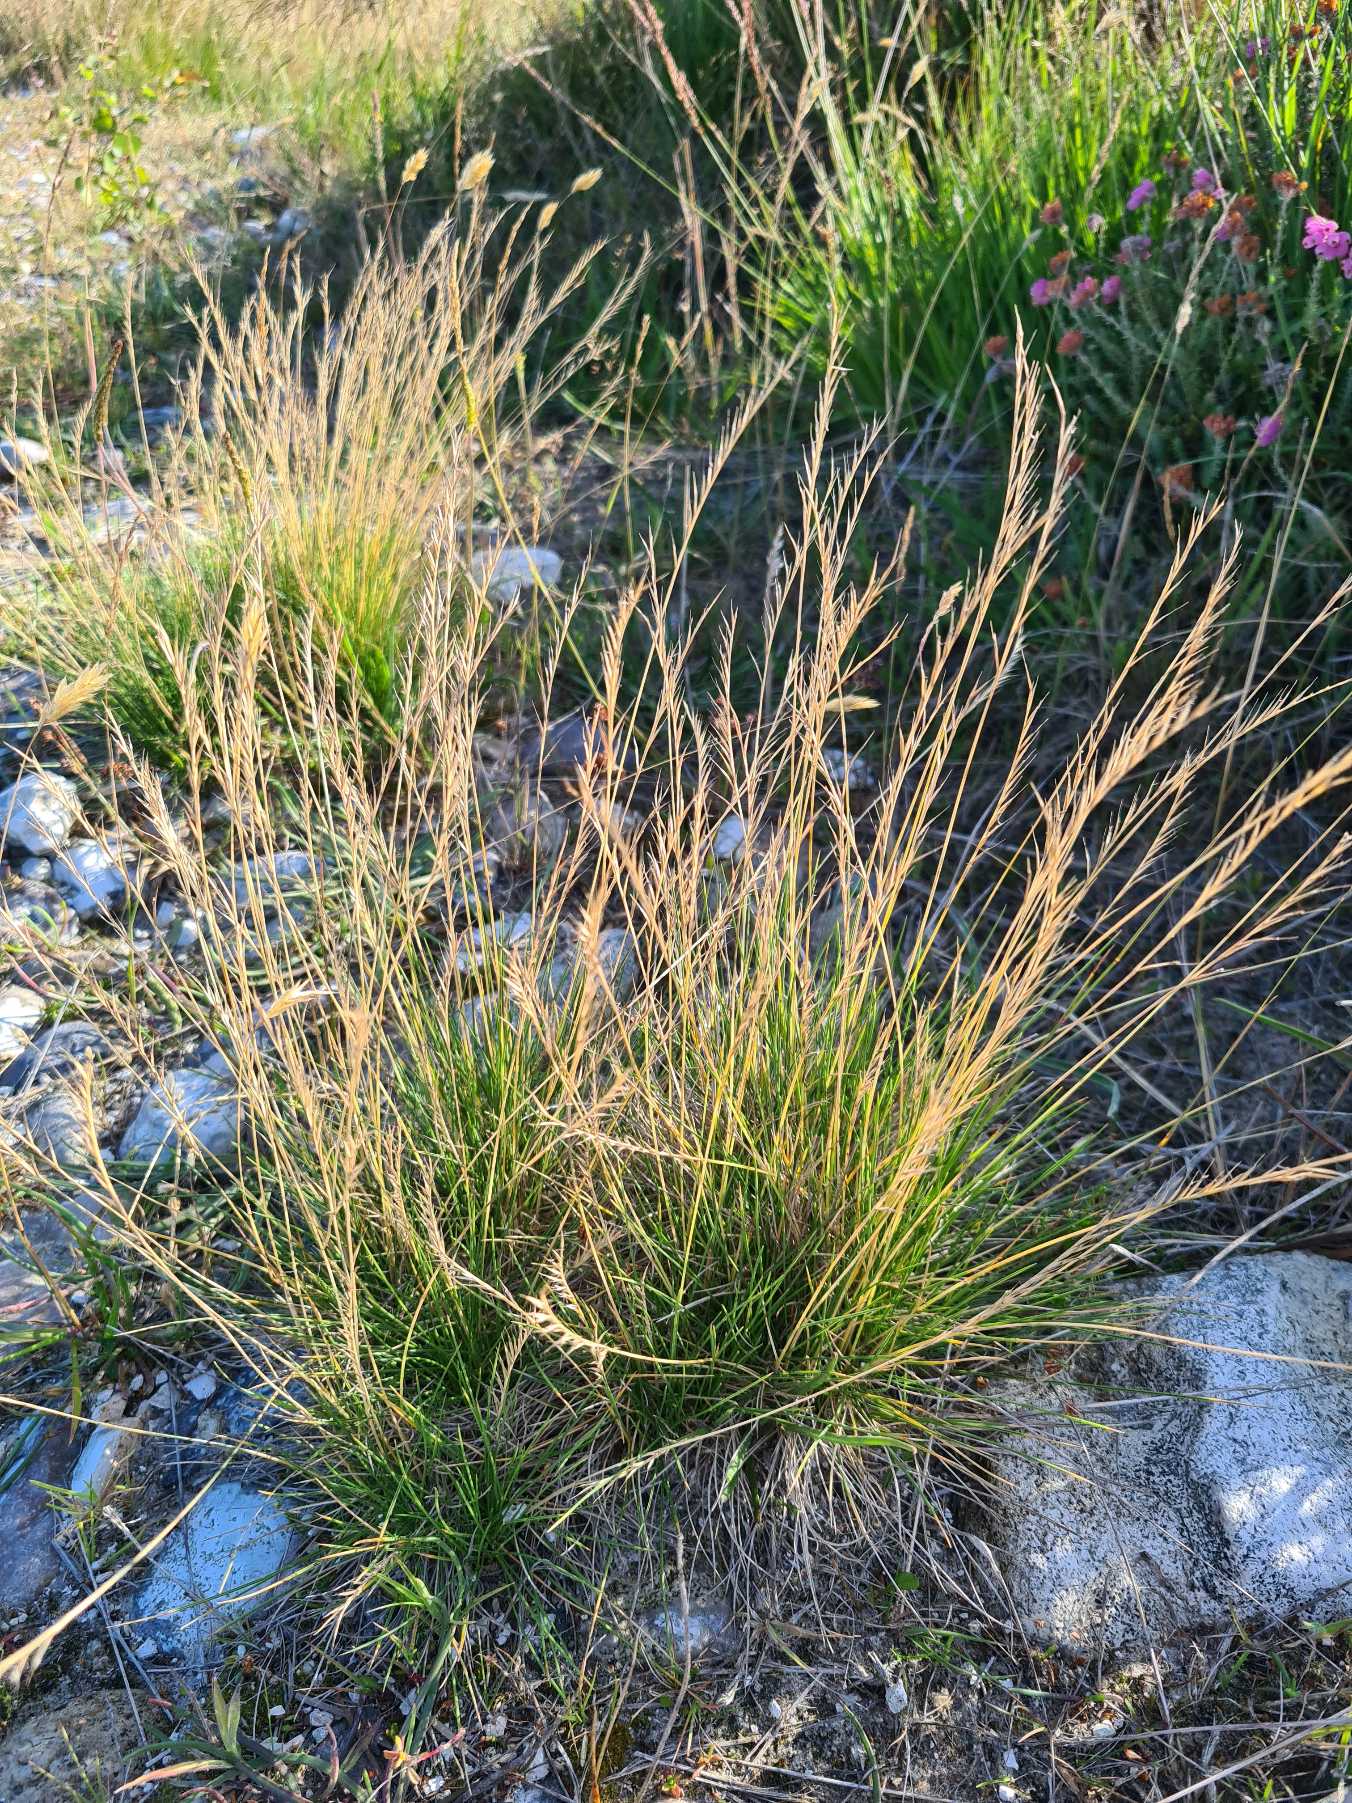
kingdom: Plantae
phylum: Tracheophyta
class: Liliopsida
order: Poales
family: Poaceae
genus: Nardus
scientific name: Nardus stricta
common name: Katteskæg
